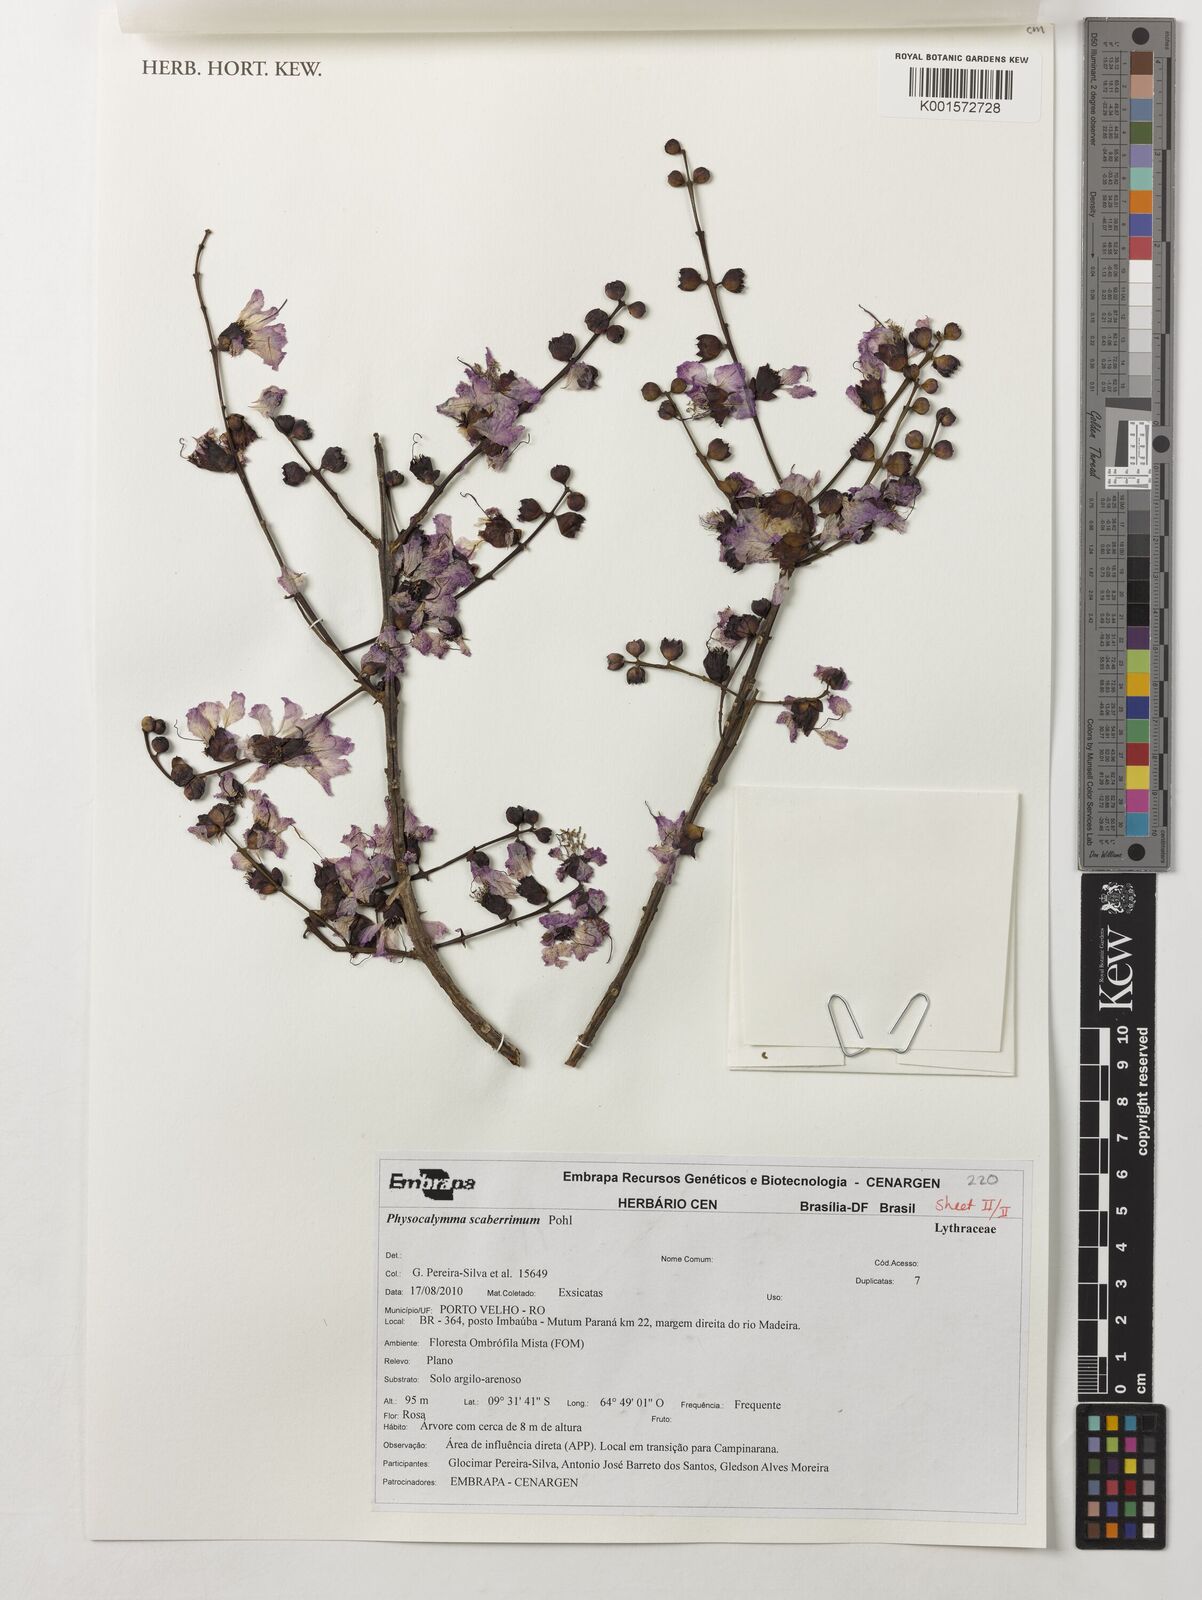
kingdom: Plantae
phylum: Tracheophyta
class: Magnoliopsida
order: Myrtales
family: Lythraceae
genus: Physocalymma
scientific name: Physocalymma scaberrimum
